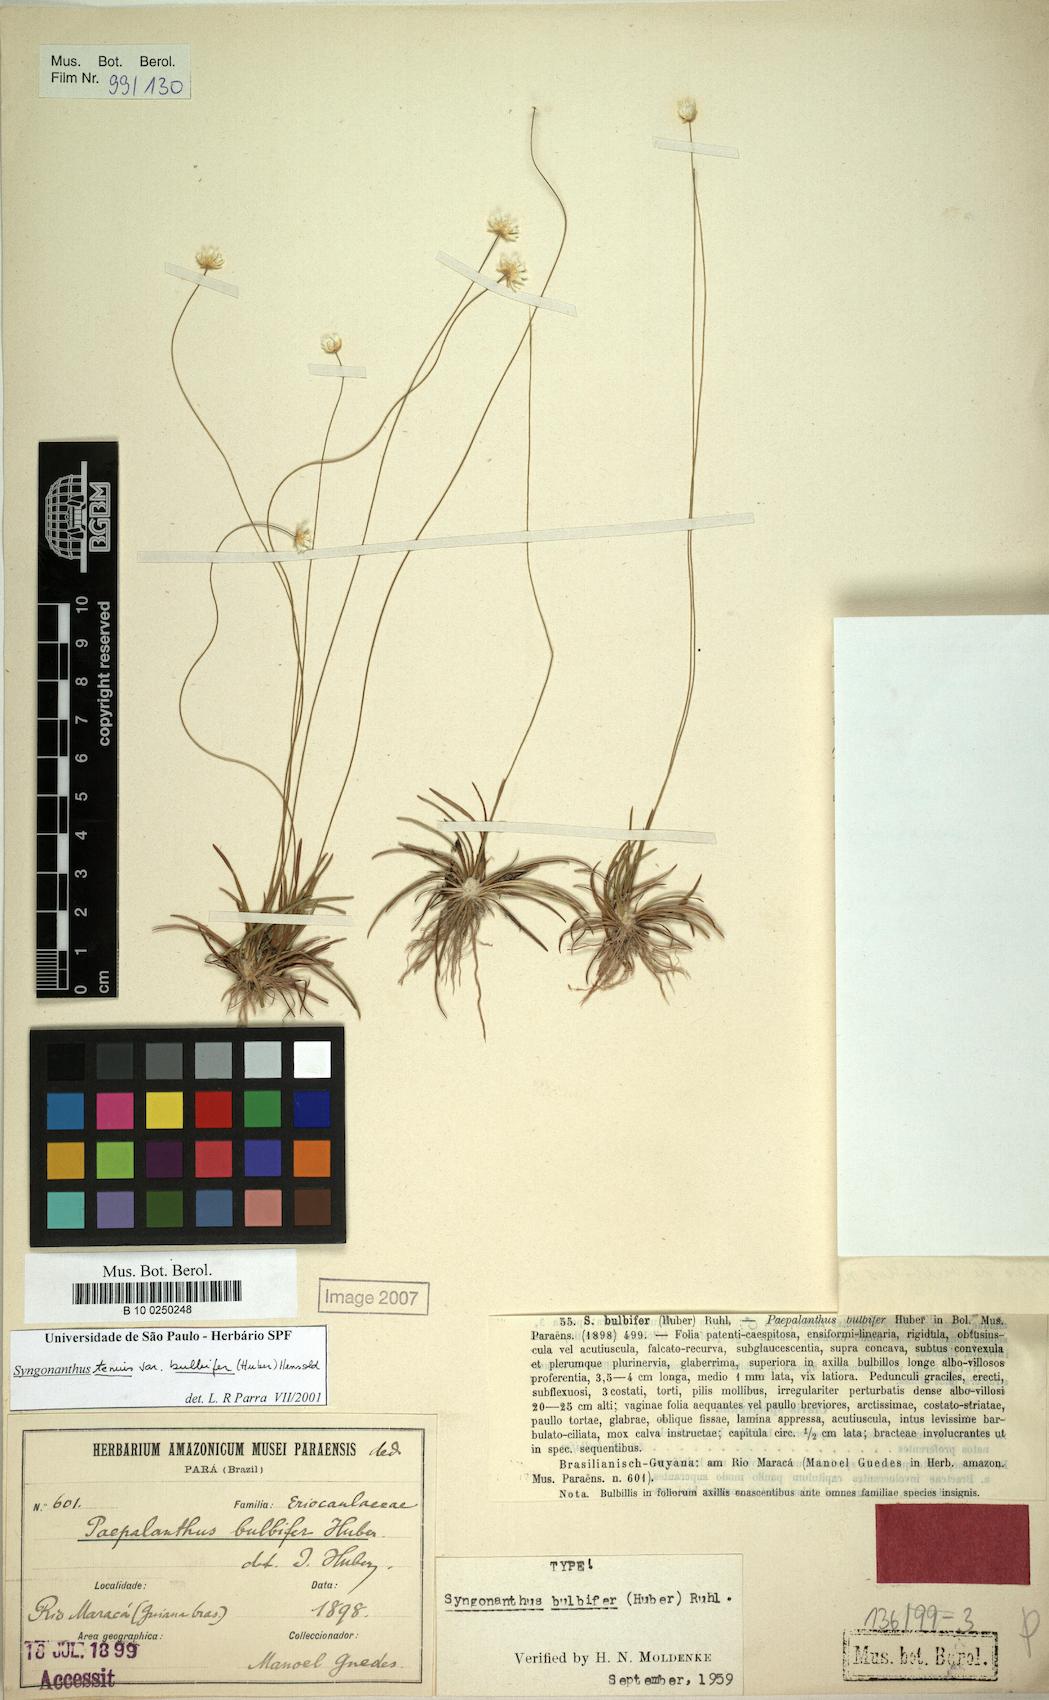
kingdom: Plantae
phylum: Tracheophyta
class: Liliopsida
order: Poales
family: Eriocaulaceae
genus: Syngonanthus
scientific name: Syngonanthus tenuis
